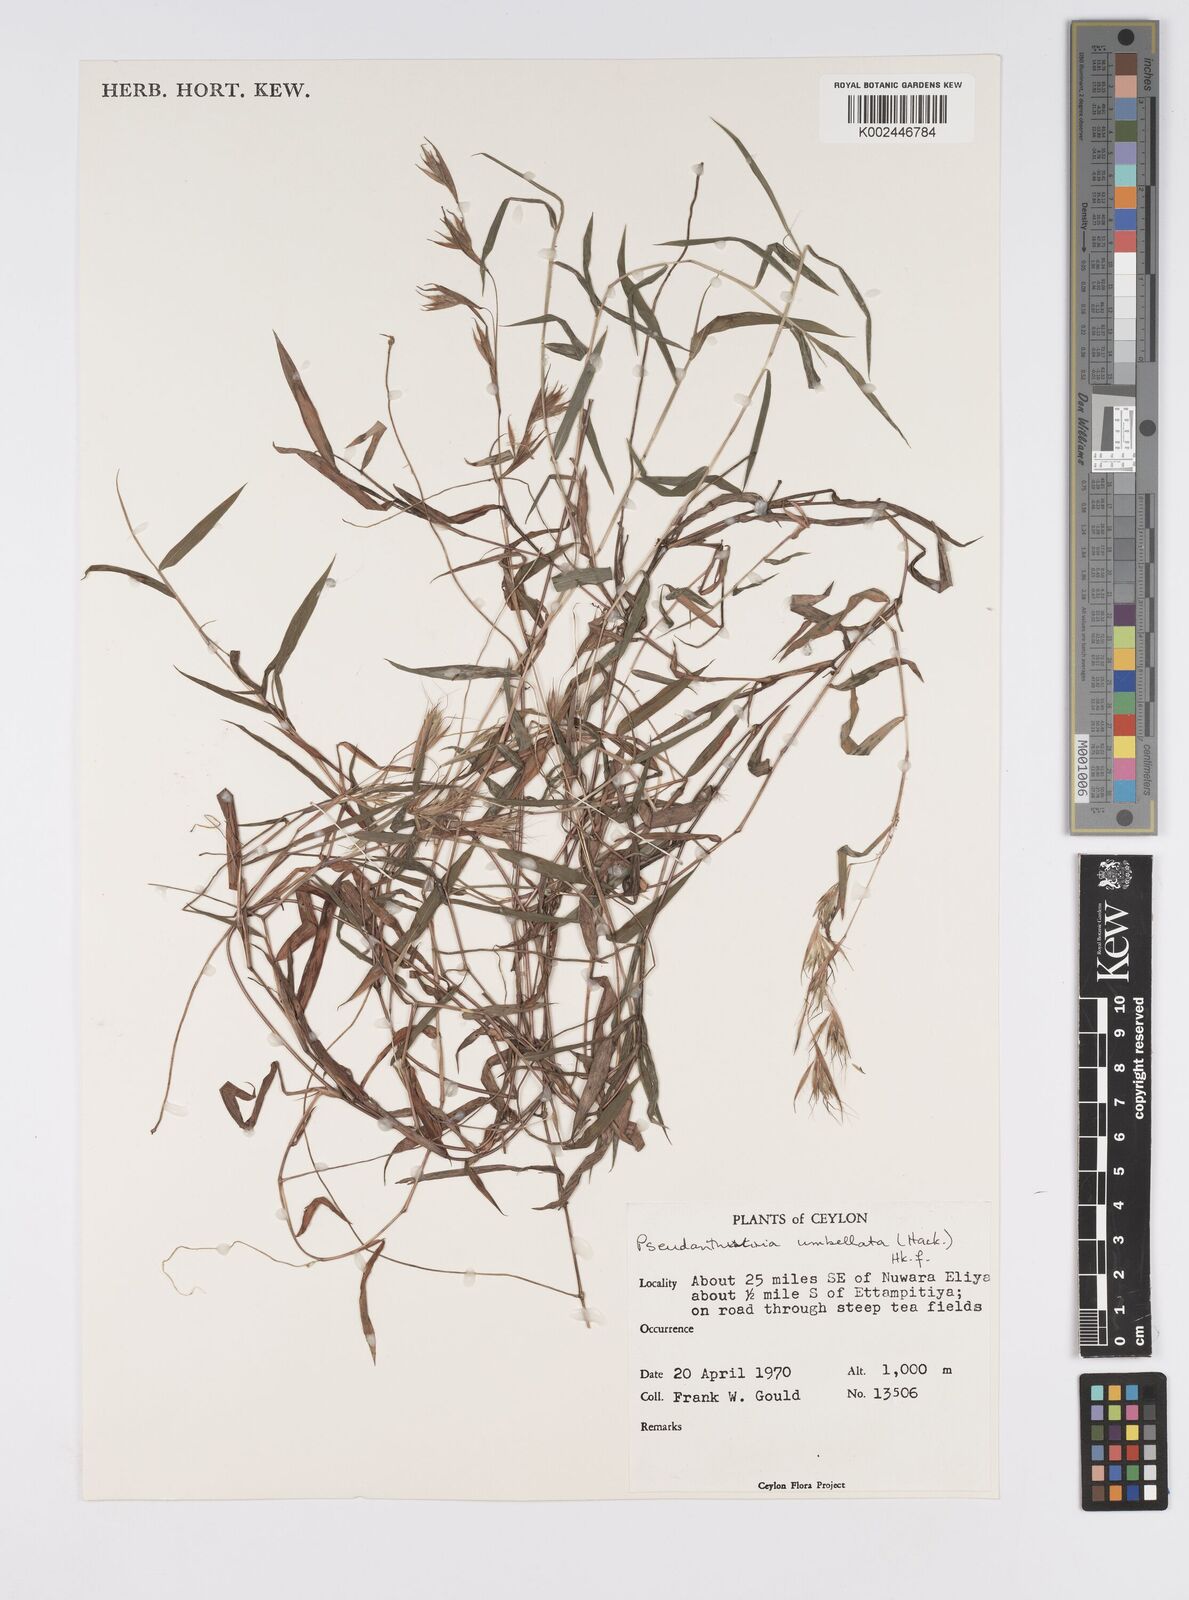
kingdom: Plantae
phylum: Tracheophyta
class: Liliopsida
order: Poales
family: Poaceae
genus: Pseudanthistiria
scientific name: Pseudanthistiria umbellata
